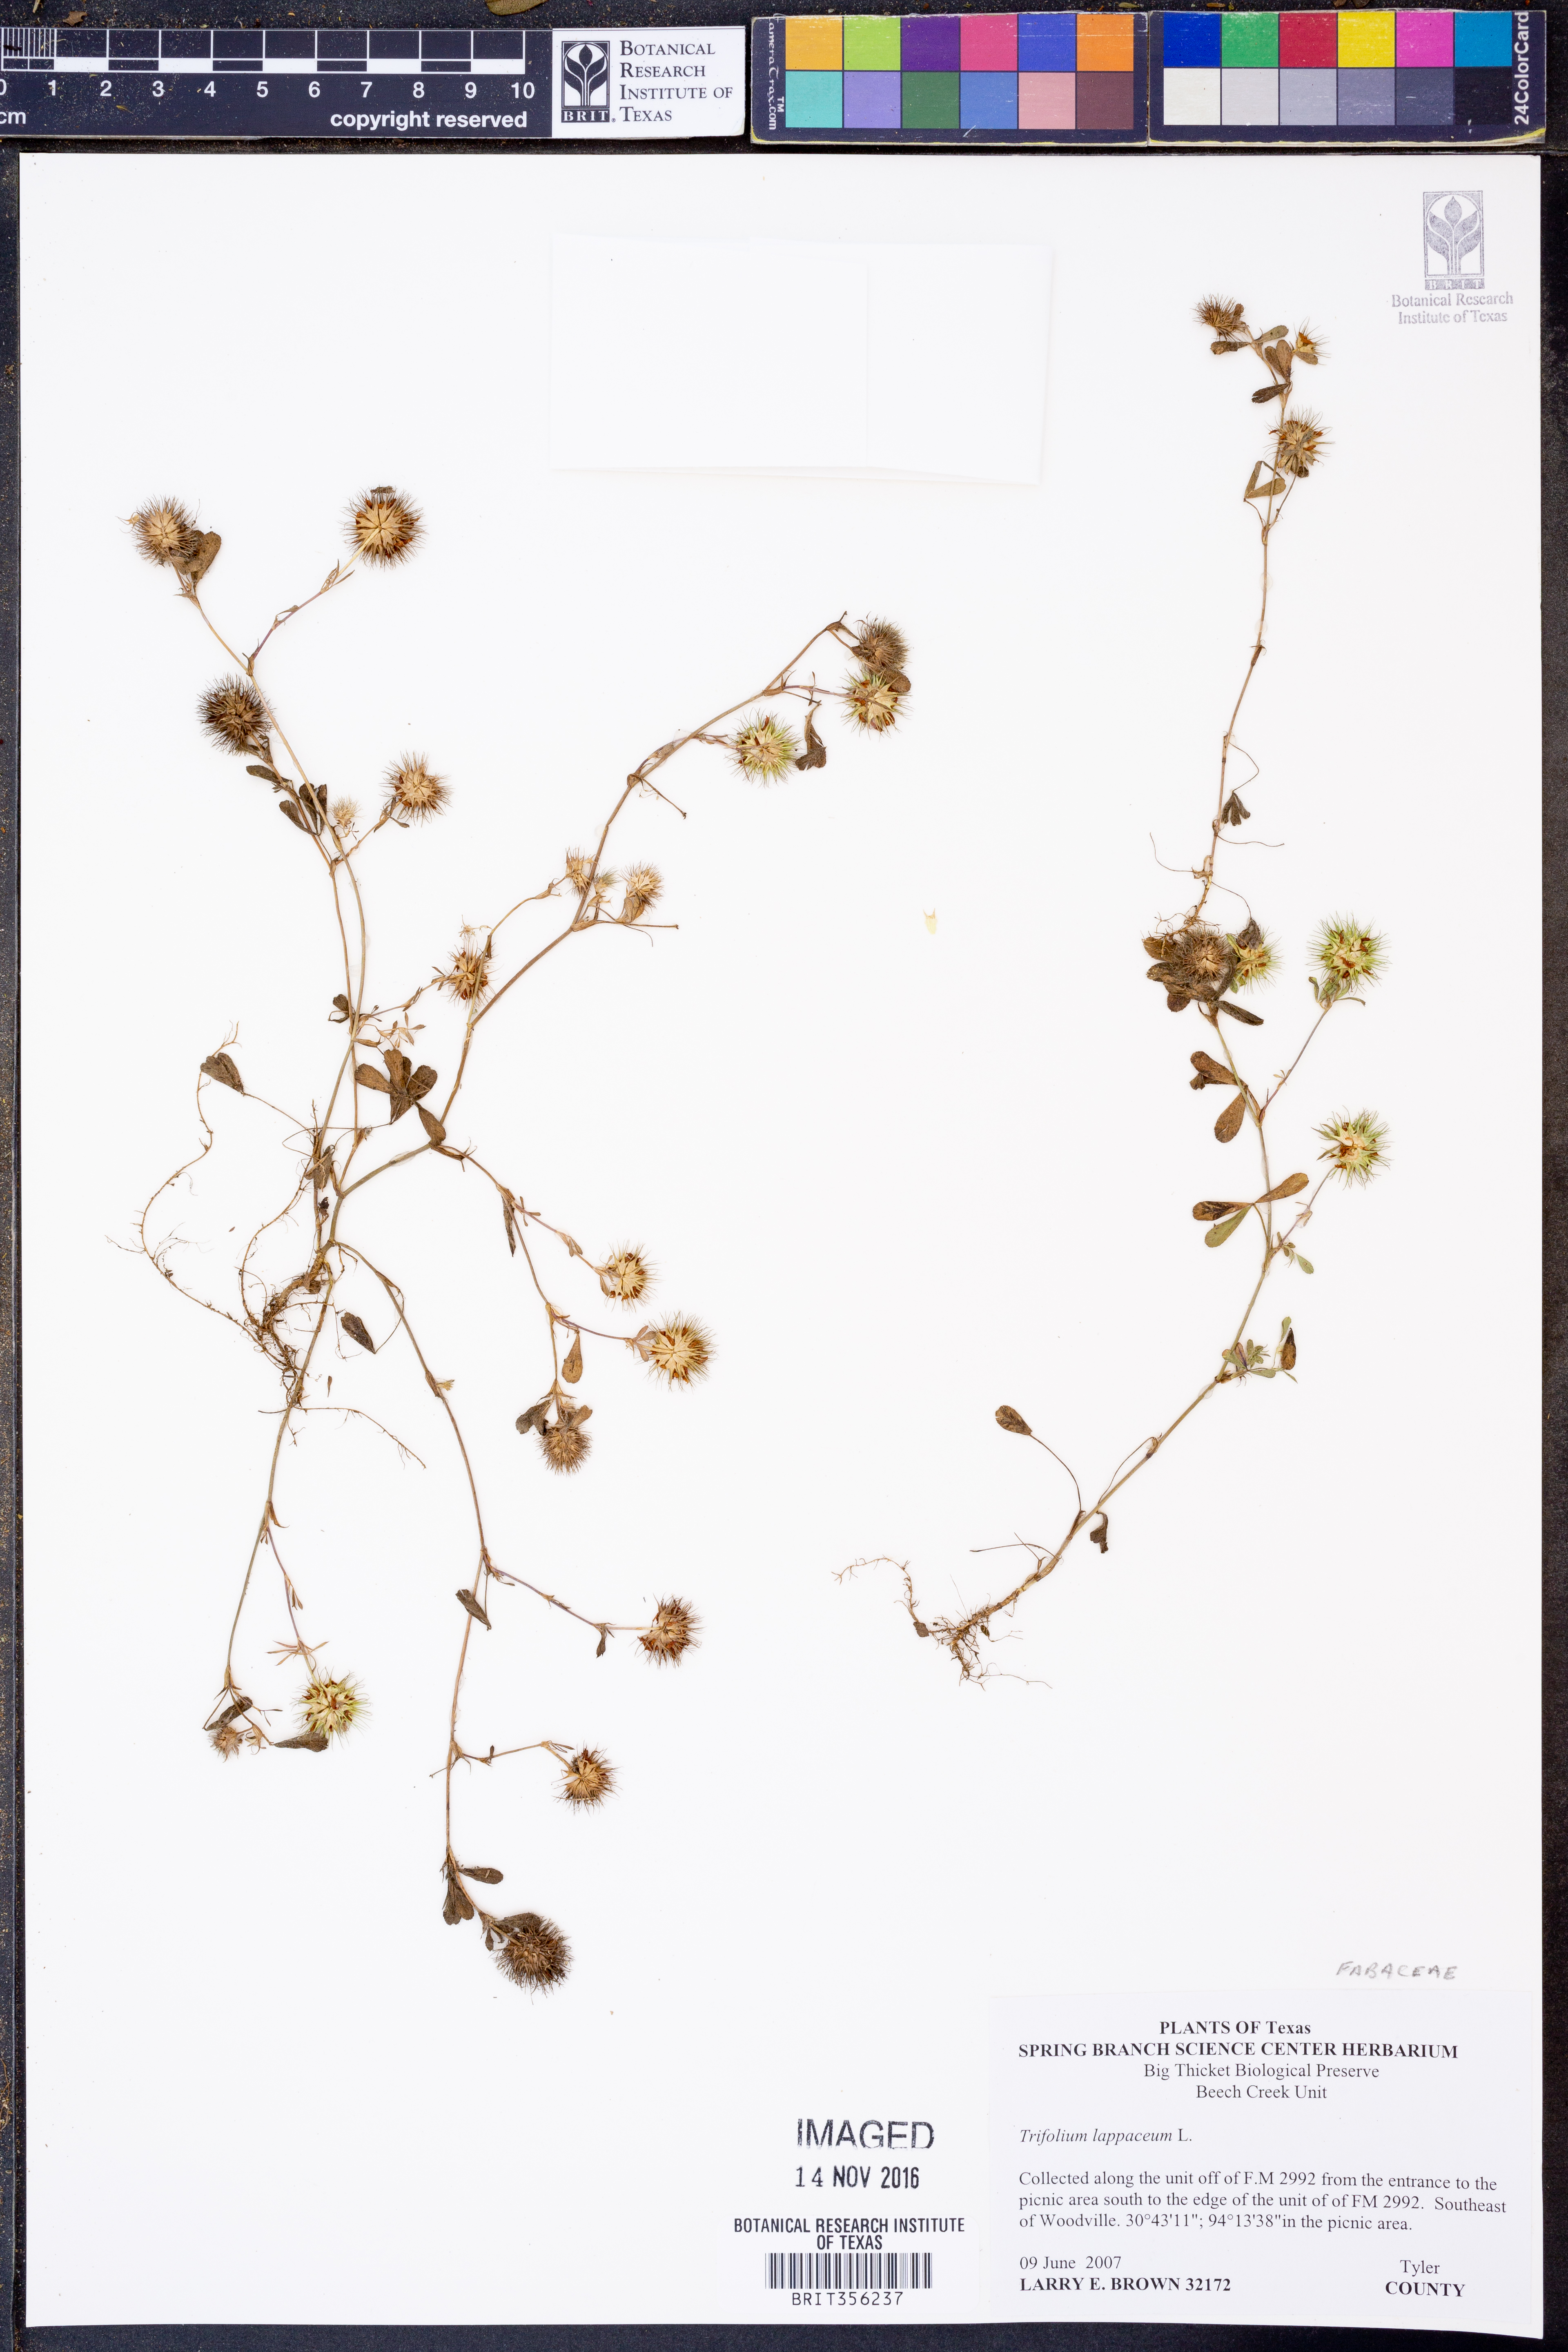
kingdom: Plantae
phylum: Tracheophyta
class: Magnoliopsida
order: Fabales
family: Fabaceae
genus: Trifolium
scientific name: Trifolium lappaceum
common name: Bur clover
